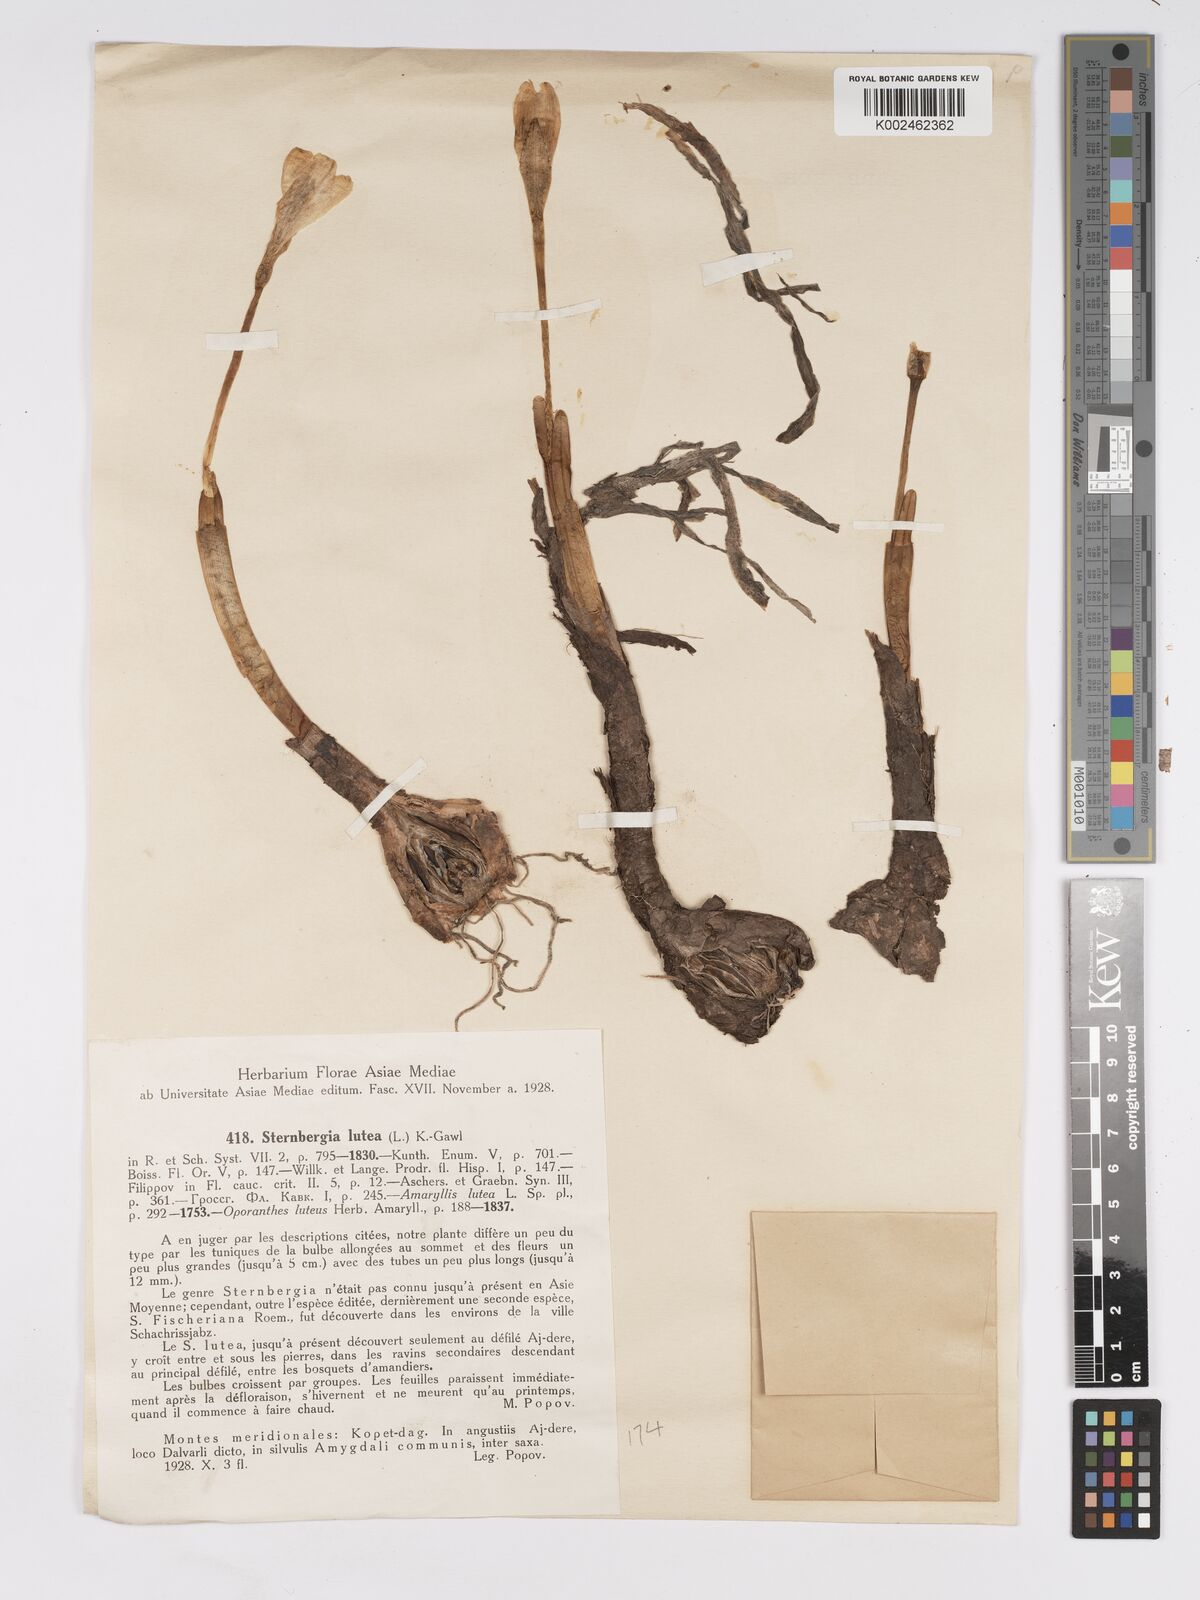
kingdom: Plantae
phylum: Tracheophyta
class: Liliopsida
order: Asparagales
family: Amaryllidaceae
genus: Sternbergia
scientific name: Sternbergia lutea
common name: Winter daffodil
